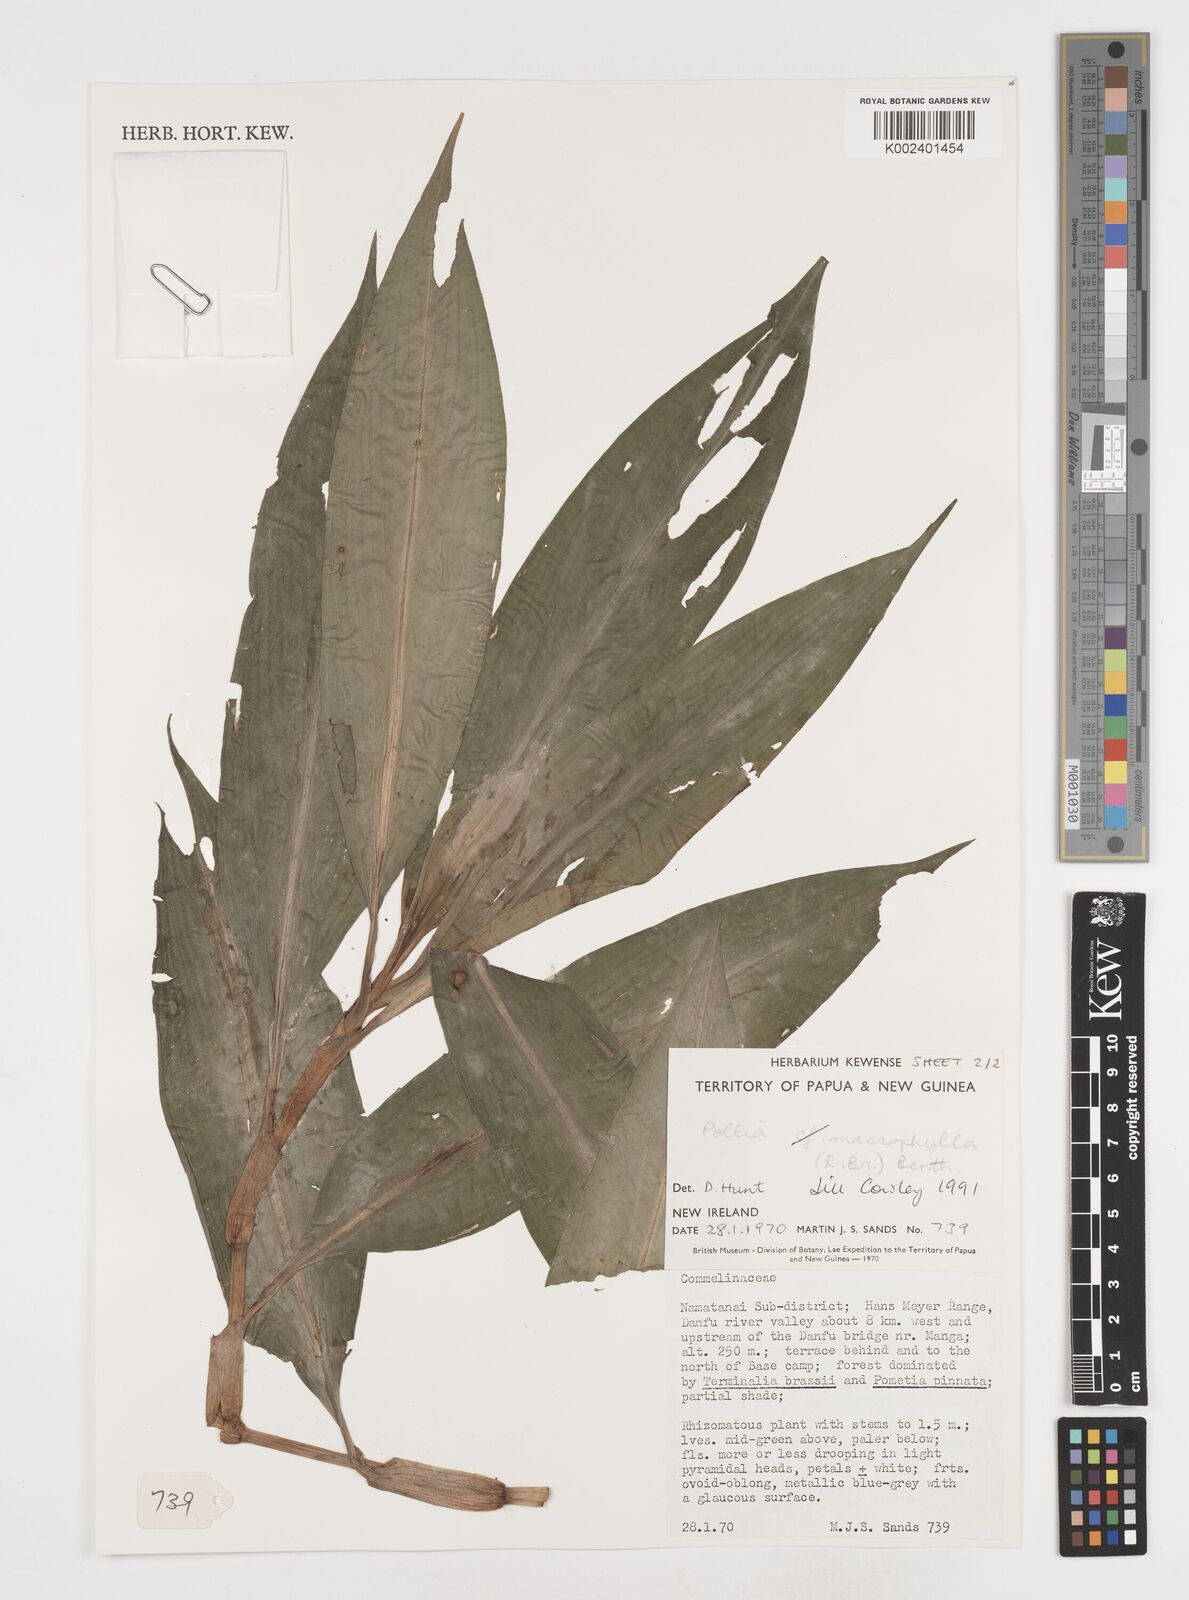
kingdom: Plantae
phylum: Tracheophyta
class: Liliopsida
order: Commelinales
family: Commelinaceae
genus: Pollia
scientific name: Pollia macrophylla
